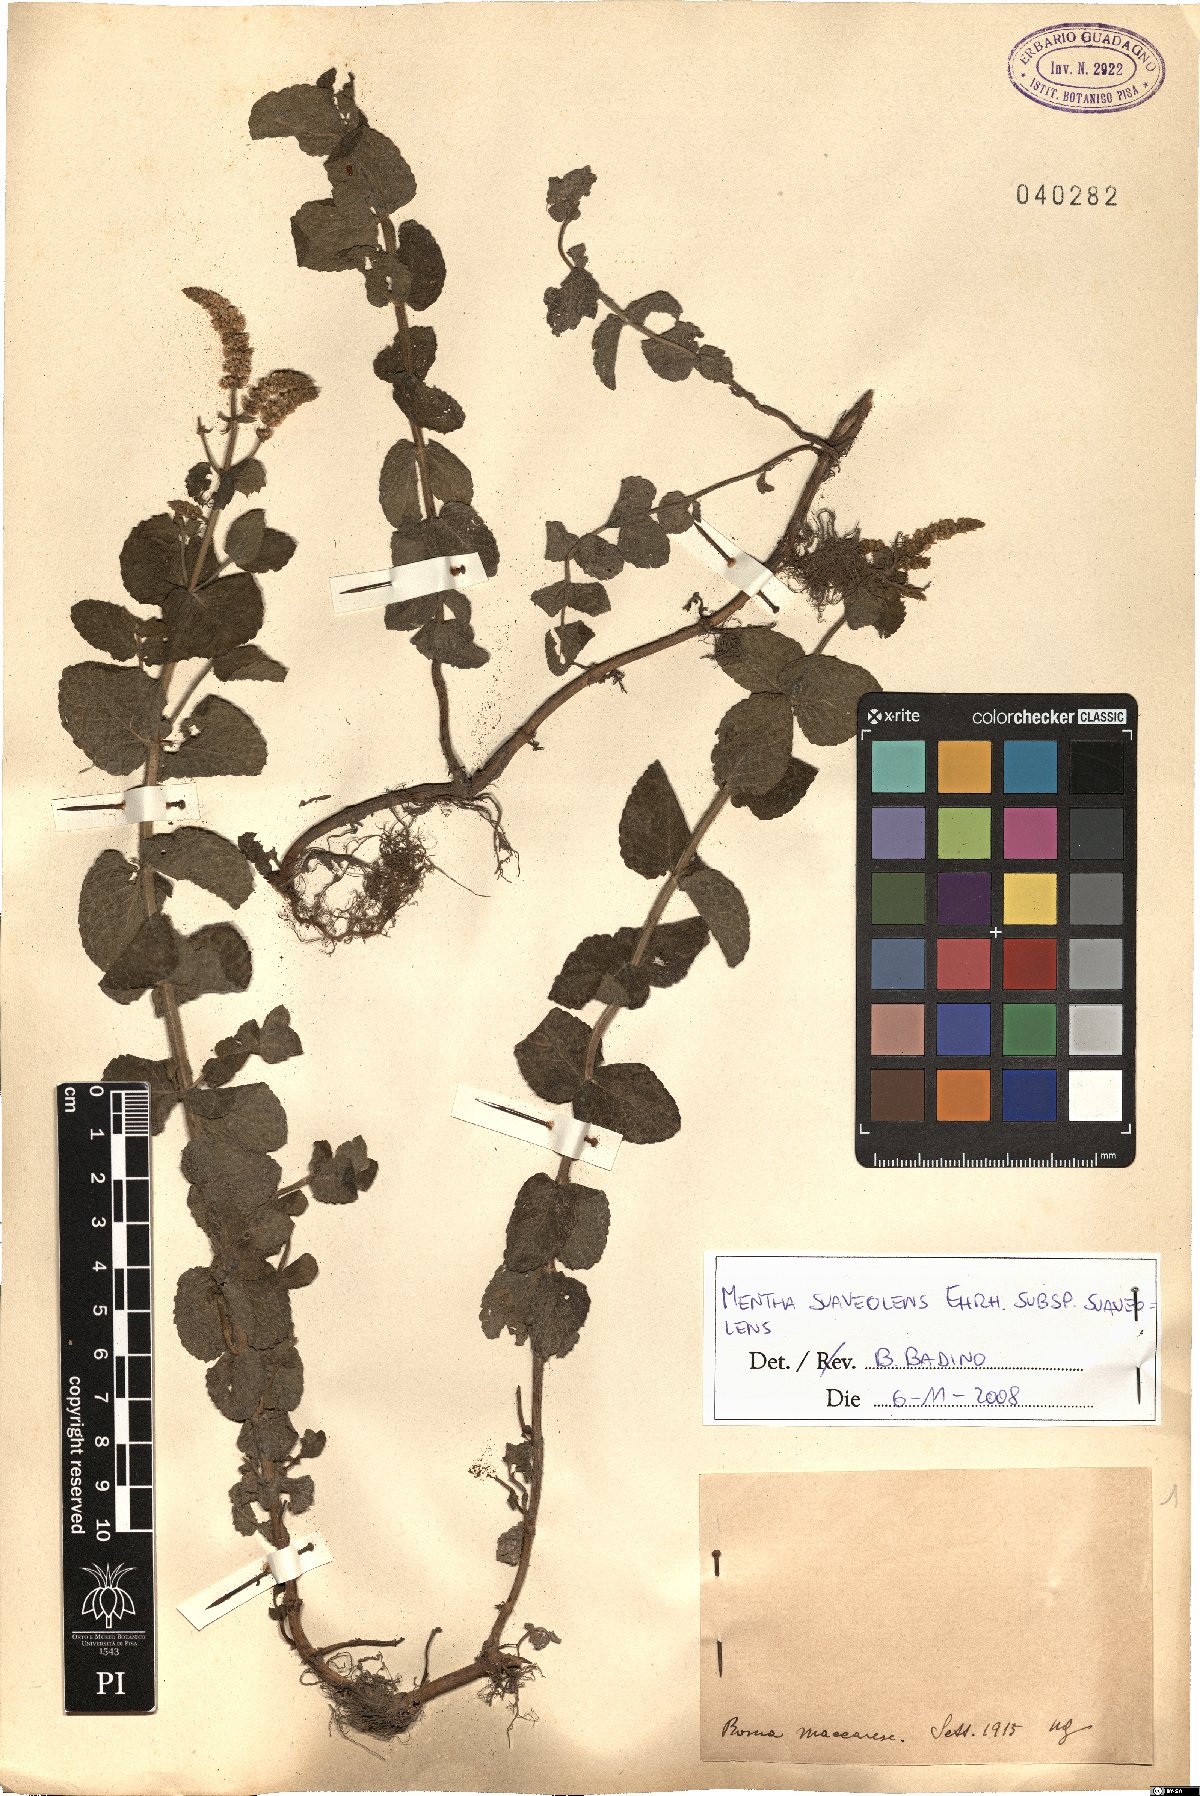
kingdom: Plantae
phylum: Tracheophyta
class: Magnoliopsida
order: Lamiales
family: Lamiaceae
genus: Mentha
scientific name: Mentha suaveolens
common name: Apple mint
